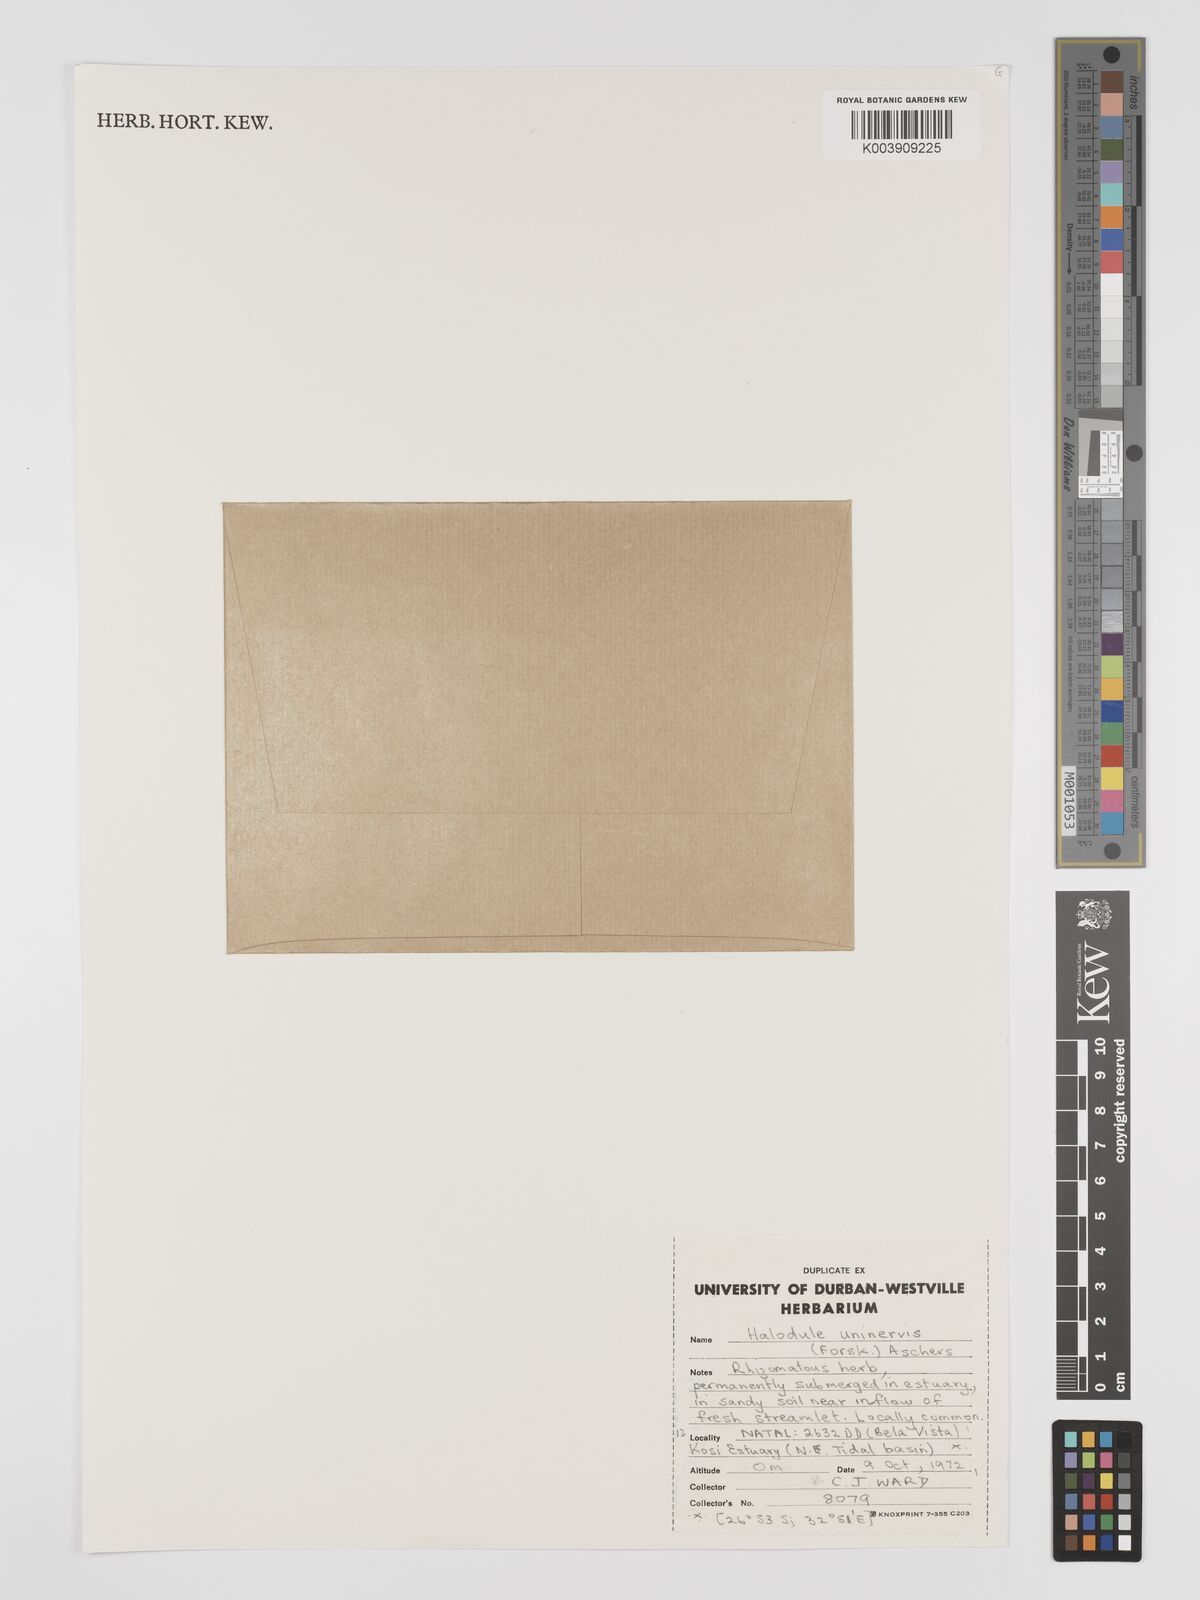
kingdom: Plantae
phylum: Tracheophyta
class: Liliopsida
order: Alismatales
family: Cymodoceaceae
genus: Halodule
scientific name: Halodule uninervis
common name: Narrowleaf seagrass
